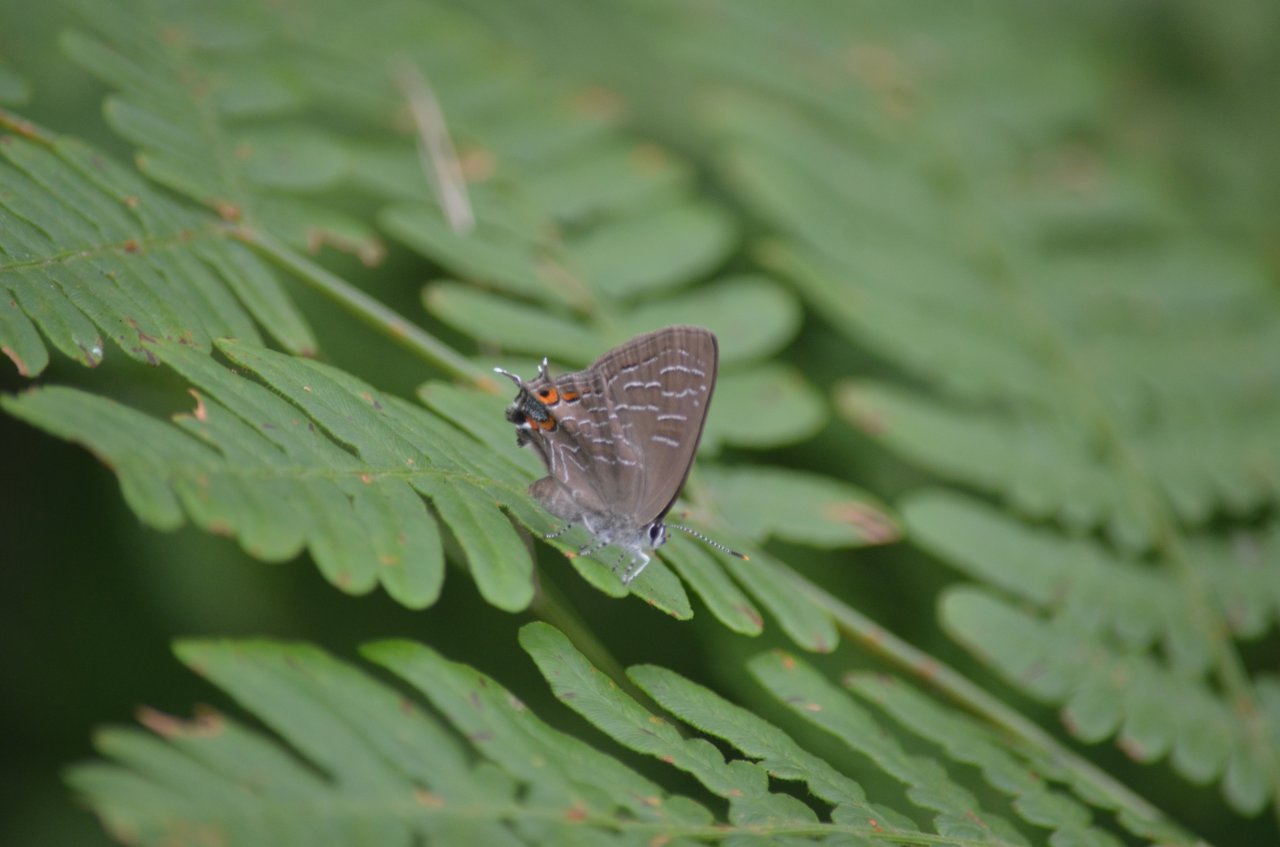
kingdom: Animalia
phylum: Arthropoda
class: Insecta
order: Lepidoptera
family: Lycaenidae
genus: Satyrium
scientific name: Satyrium liparops
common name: Striped Hairstreak
